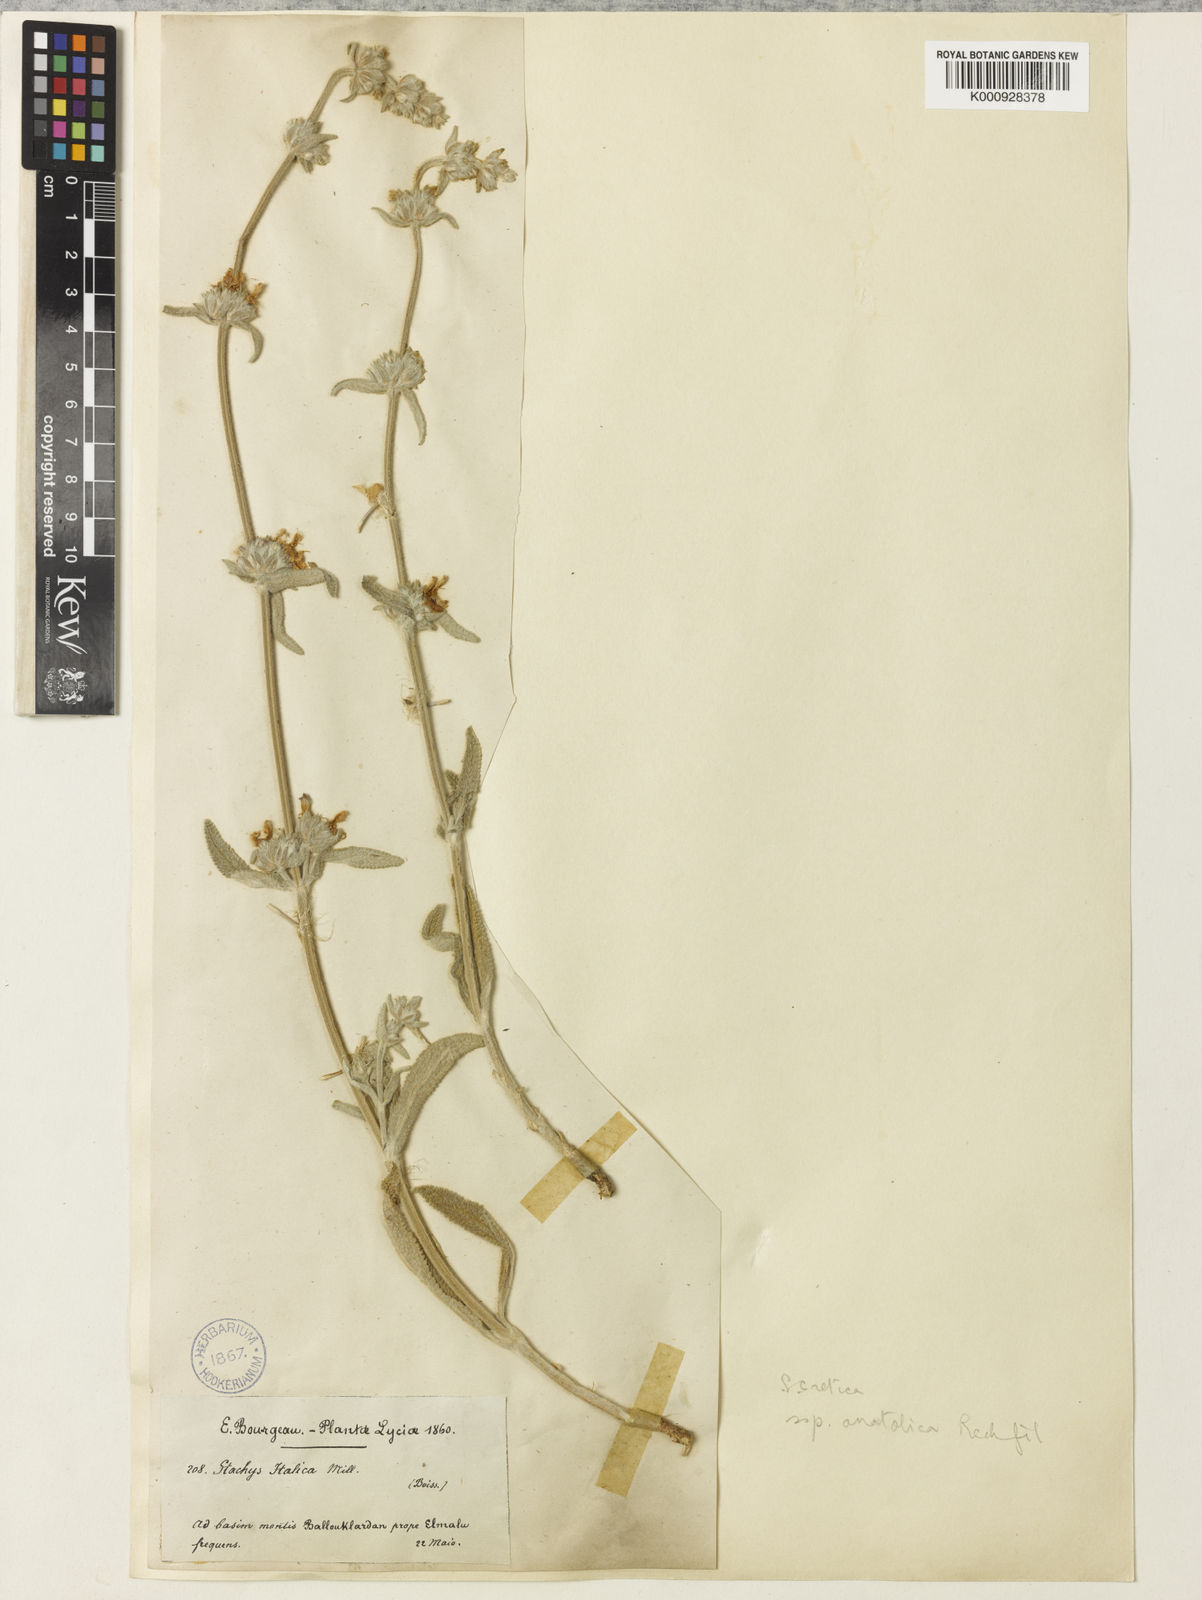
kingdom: Plantae
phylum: Tracheophyta
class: Magnoliopsida
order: Lamiales
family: Lamiaceae
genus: Stachys
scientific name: Stachys cretica
